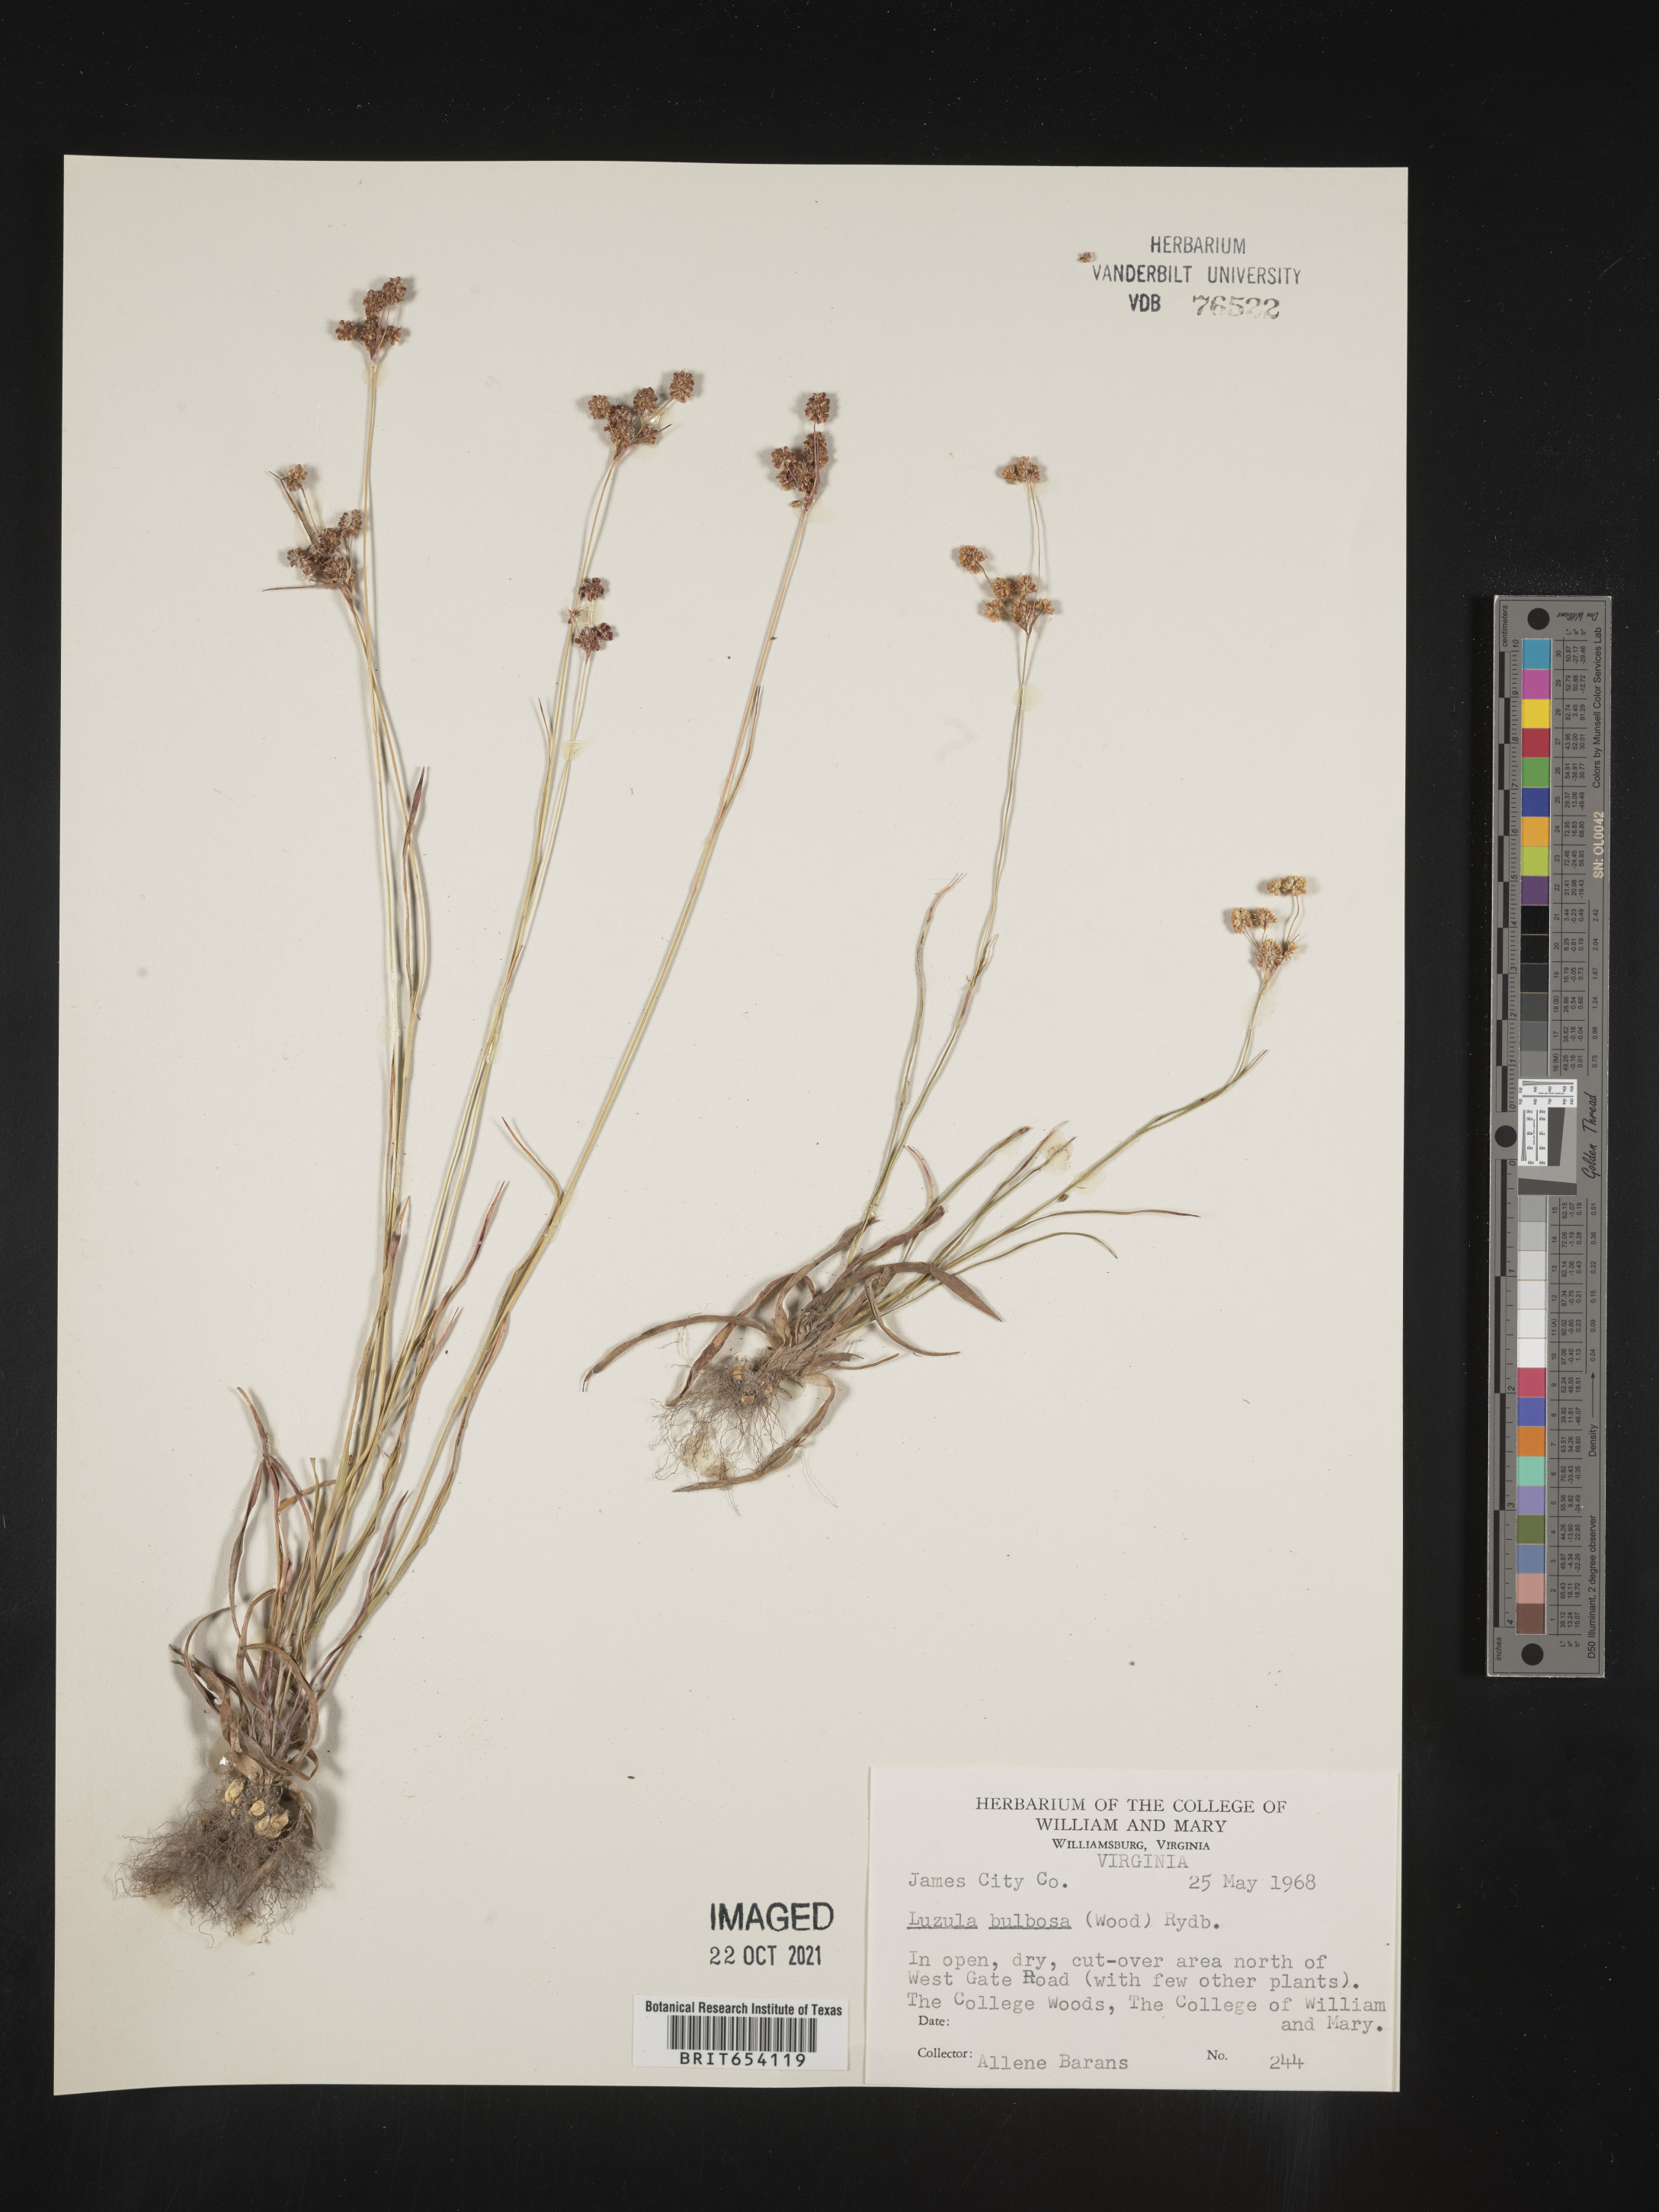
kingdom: Plantae
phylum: Tracheophyta
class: Liliopsida
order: Poales
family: Juncaceae
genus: Luzula
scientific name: Luzula bulbosa
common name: Bulbous woodrush
